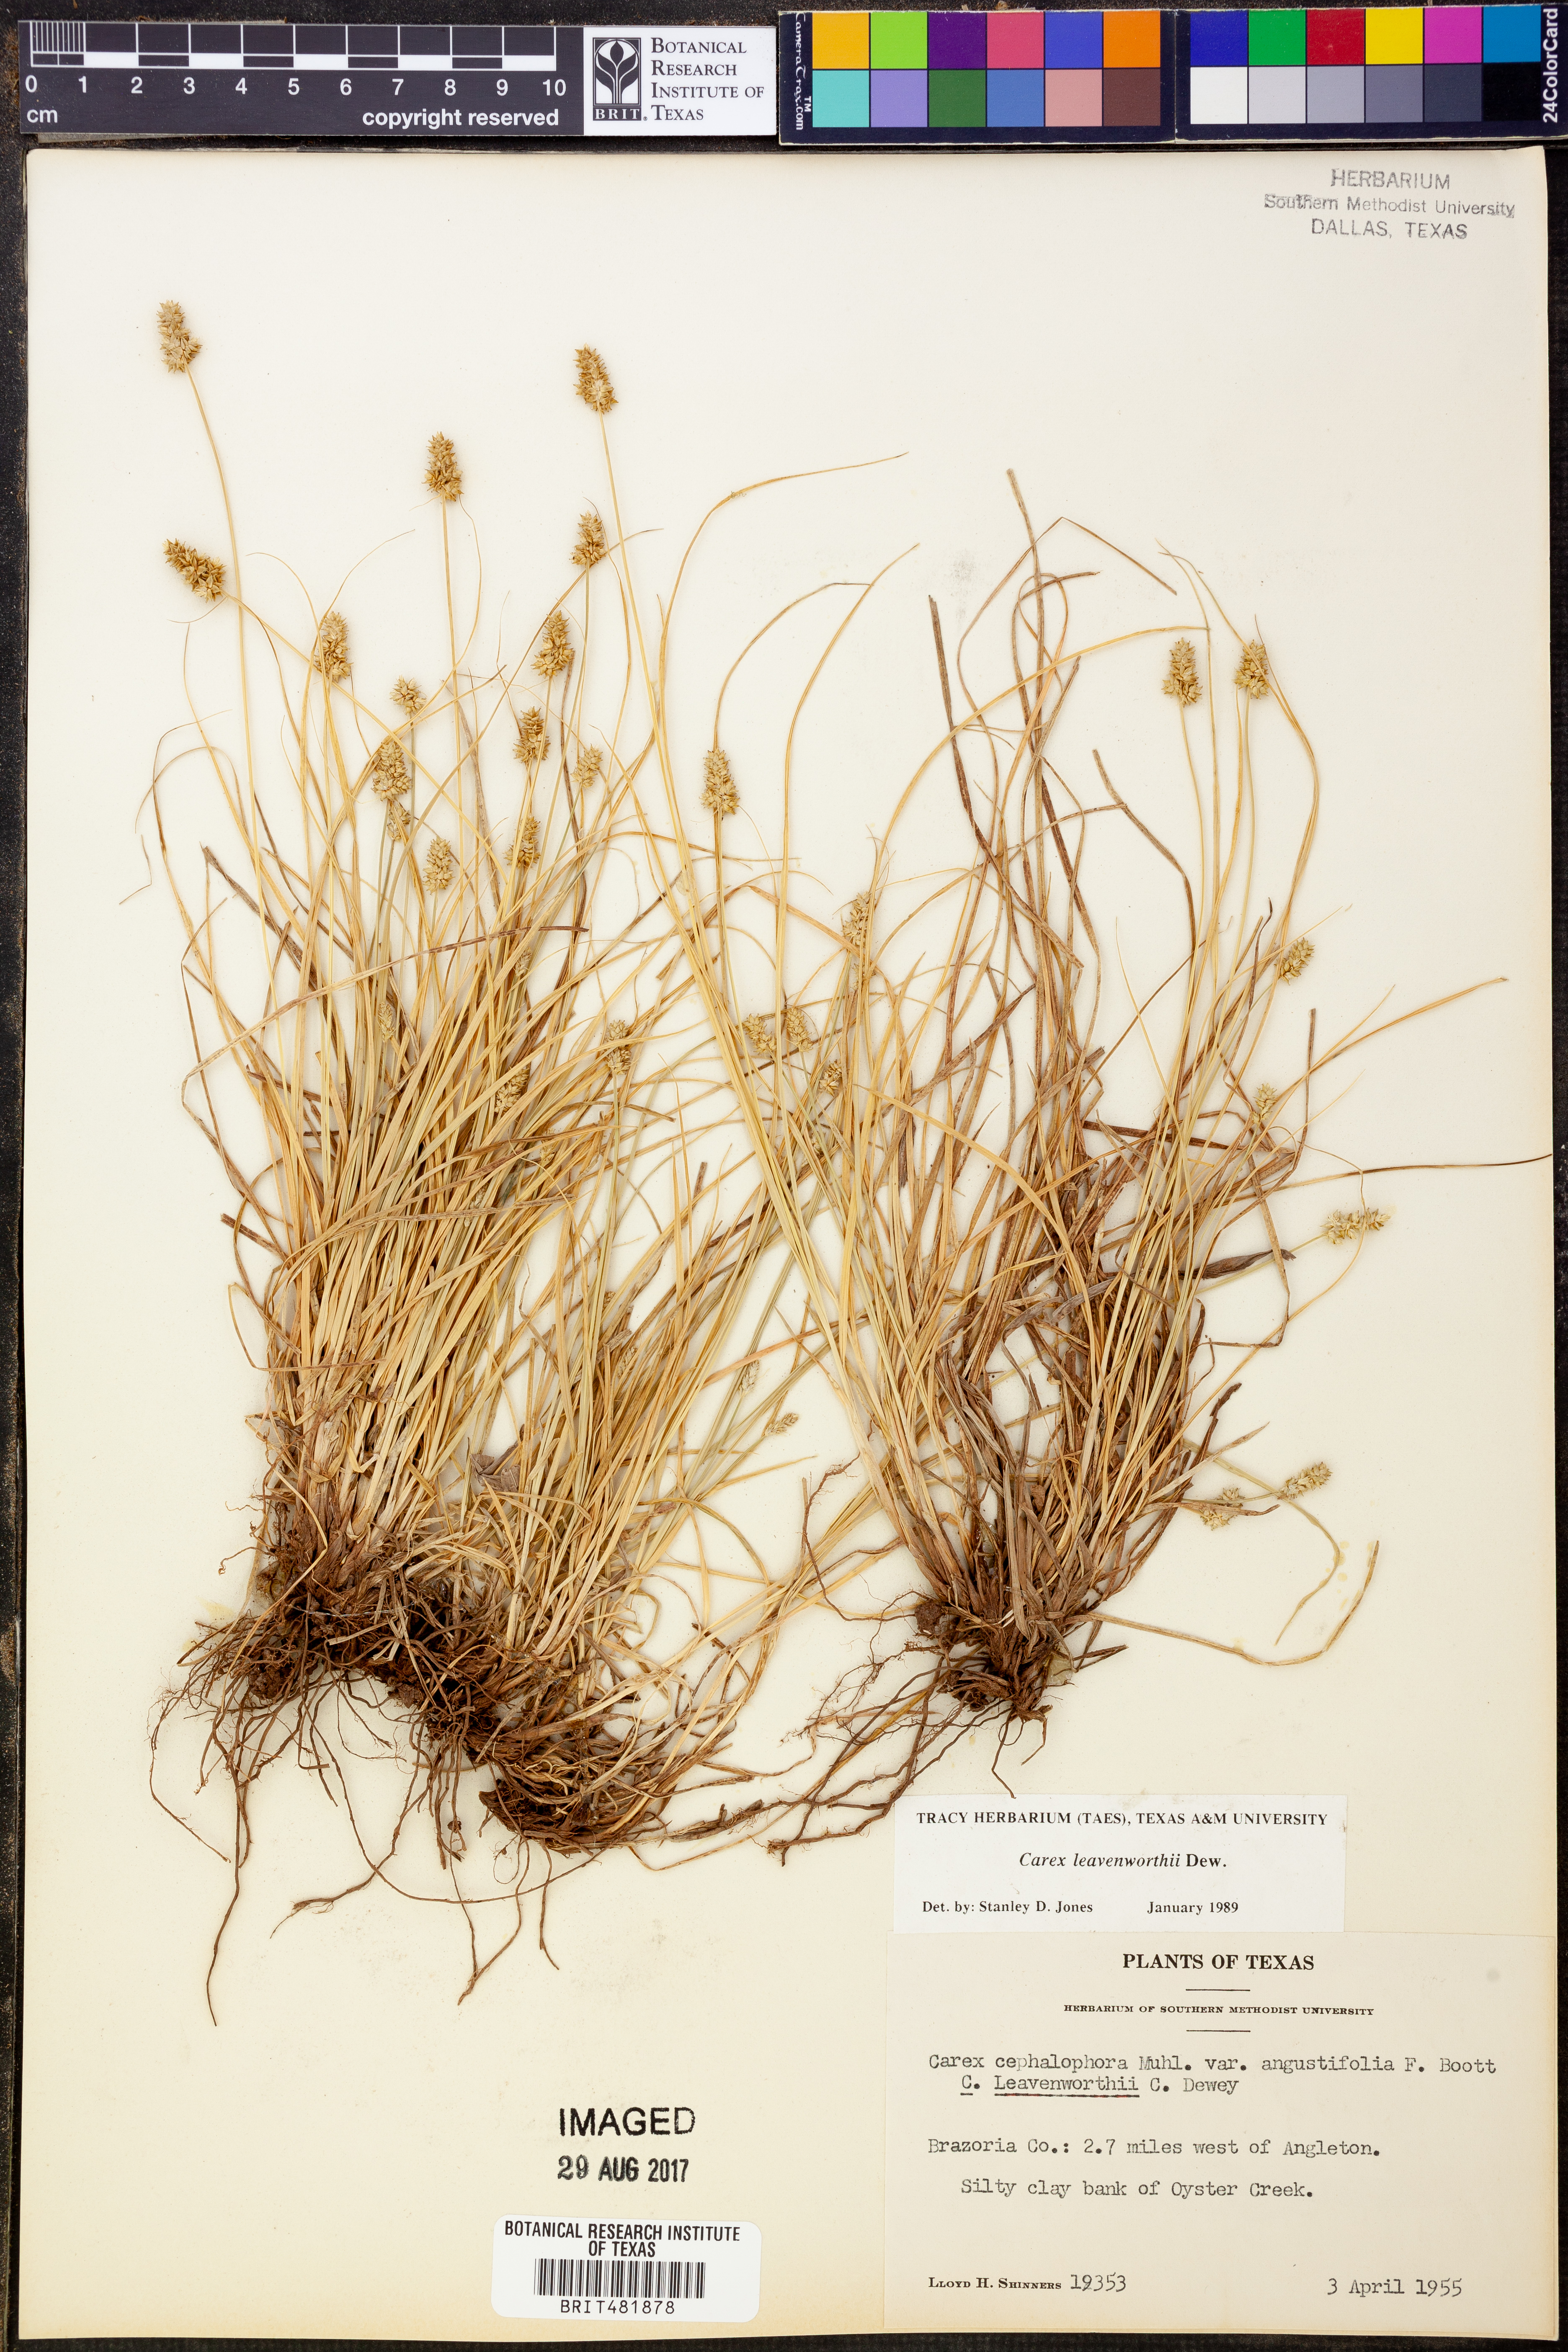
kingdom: Plantae
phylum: Tracheophyta
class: Liliopsida
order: Poales
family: Cyperaceae
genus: Carex
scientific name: Carex leavenworthii
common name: Leavenworth's bracted sedge
